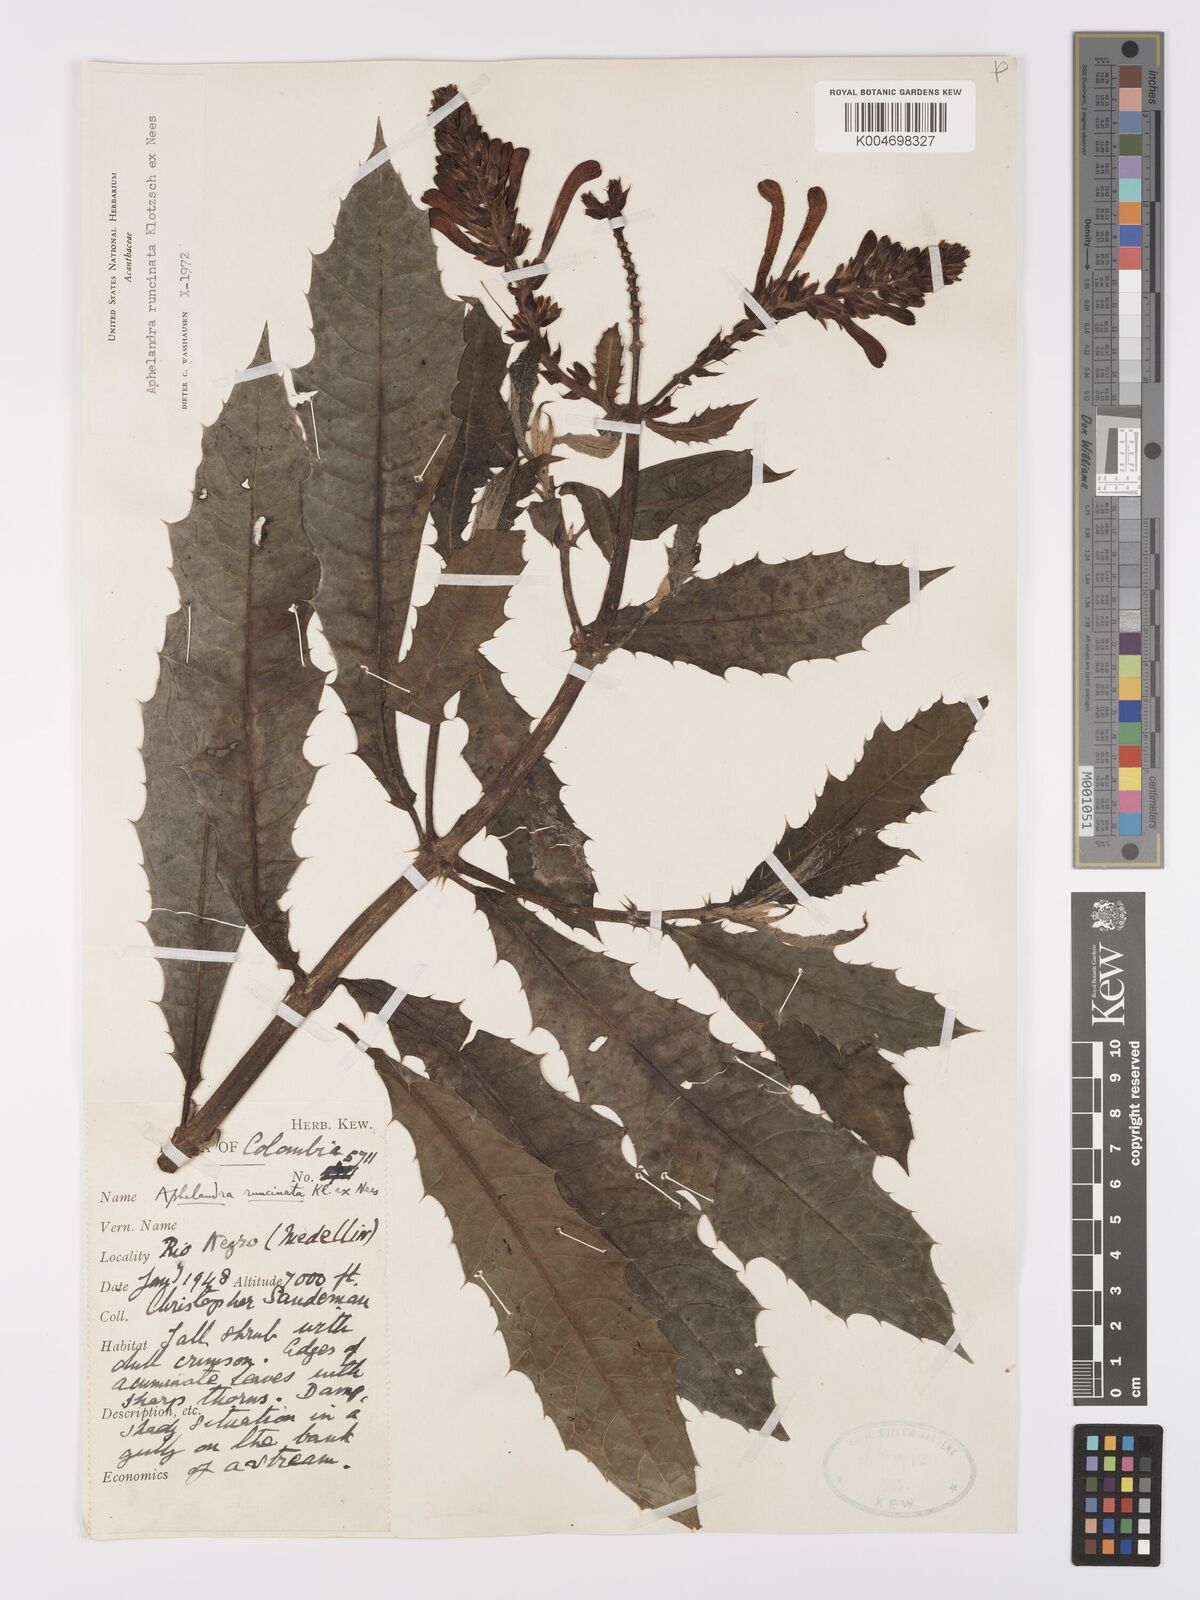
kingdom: Plantae
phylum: Tracheophyta
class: Magnoliopsida
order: Lamiales
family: Acanthaceae
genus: Aphelandra
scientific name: Aphelandra runcinata
